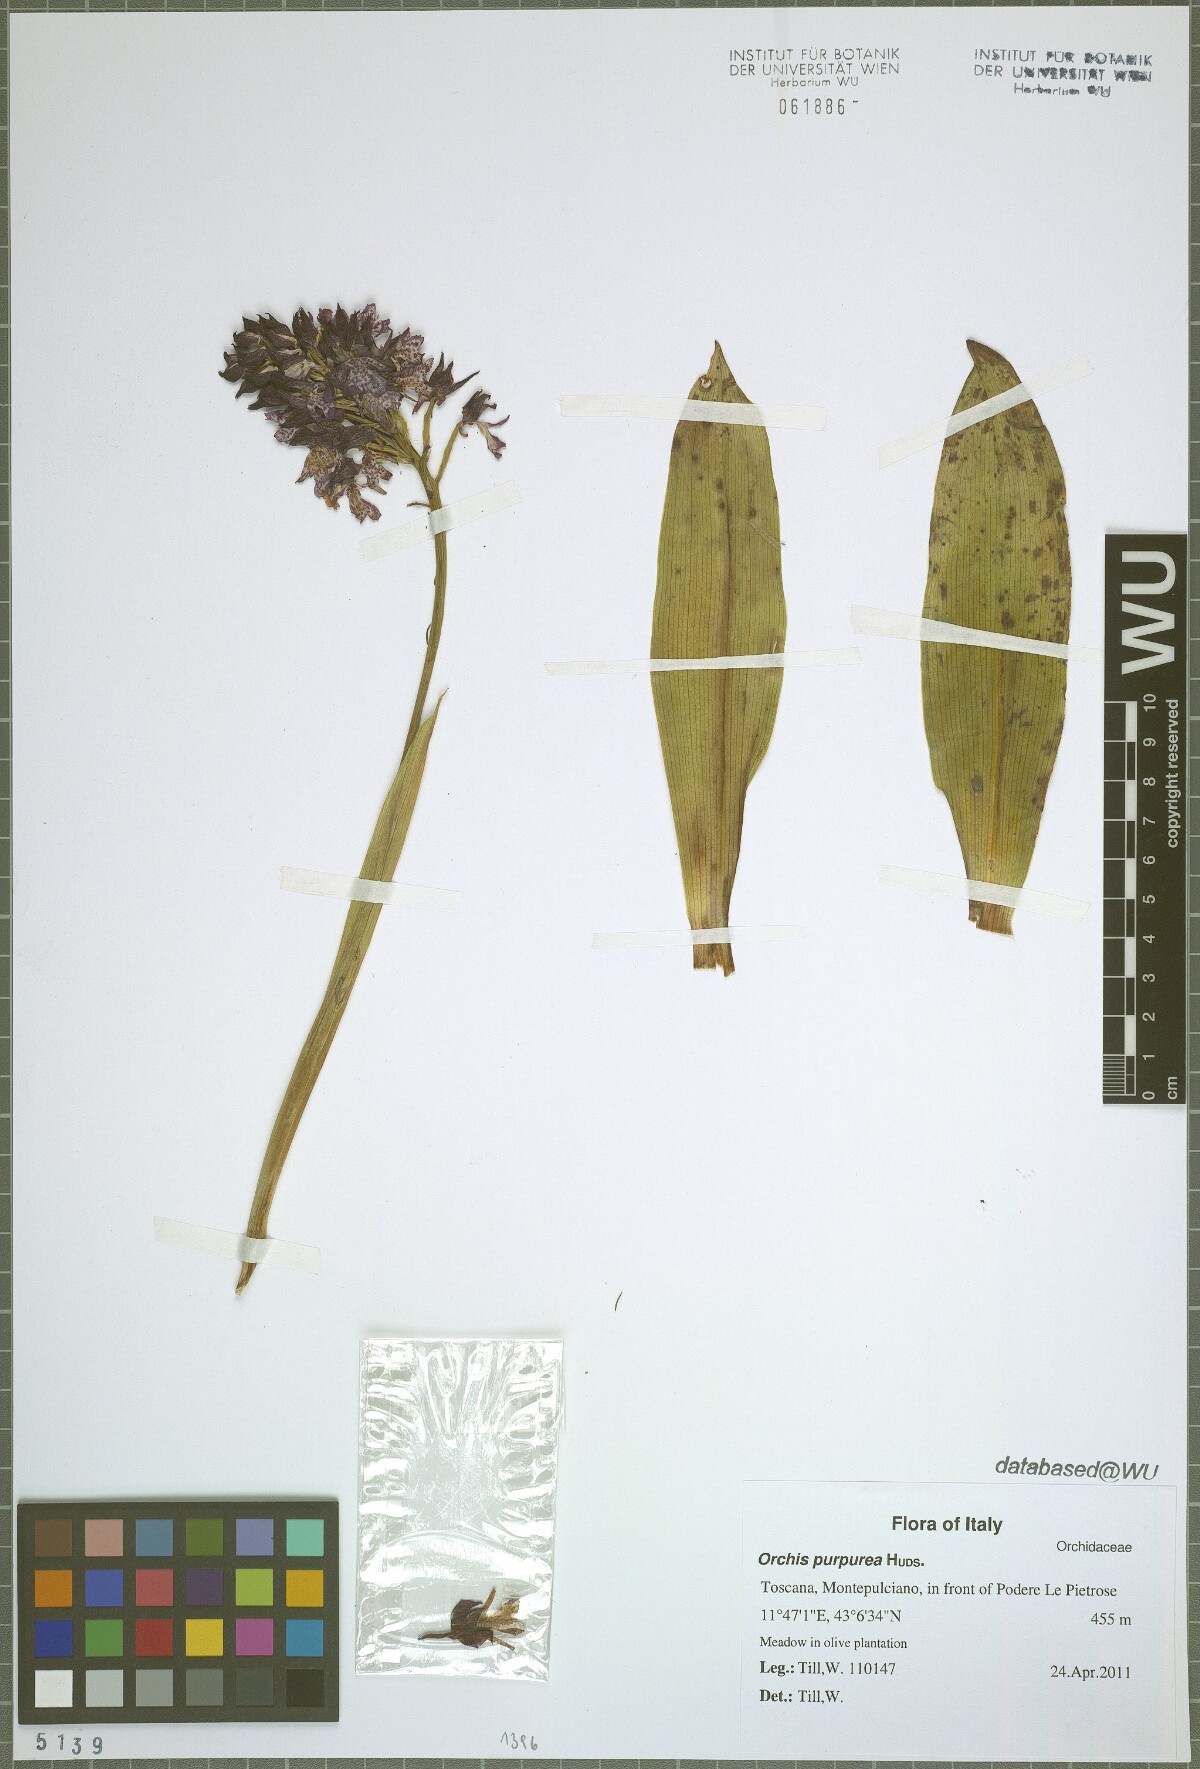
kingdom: Plantae
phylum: Tracheophyta
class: Liliopsida
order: Asparagales
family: Orchidaceae
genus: Orchis
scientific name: Orchis purpurea
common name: Lady orchid
